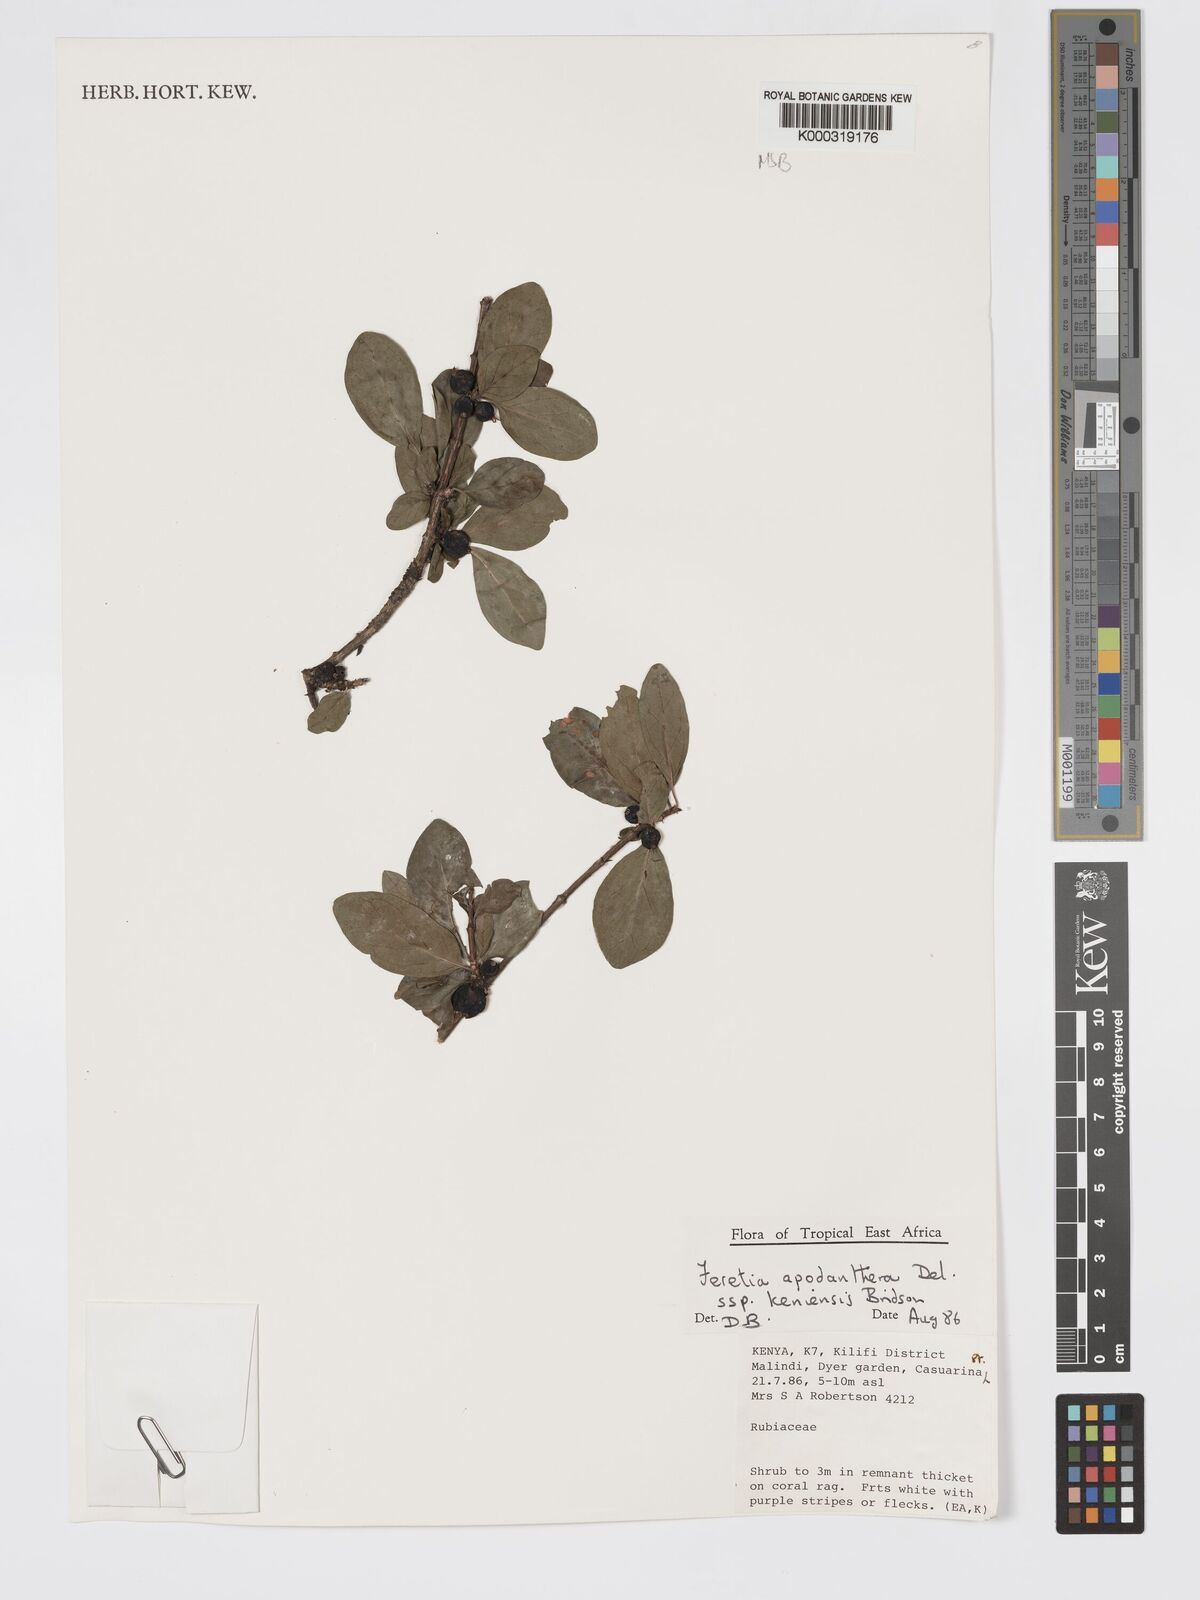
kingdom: Plantae
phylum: Tracheophyta
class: Magnoliopsida
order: Gentianales
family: Rubiaceae
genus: Feretia
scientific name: Feretia apodanthera
